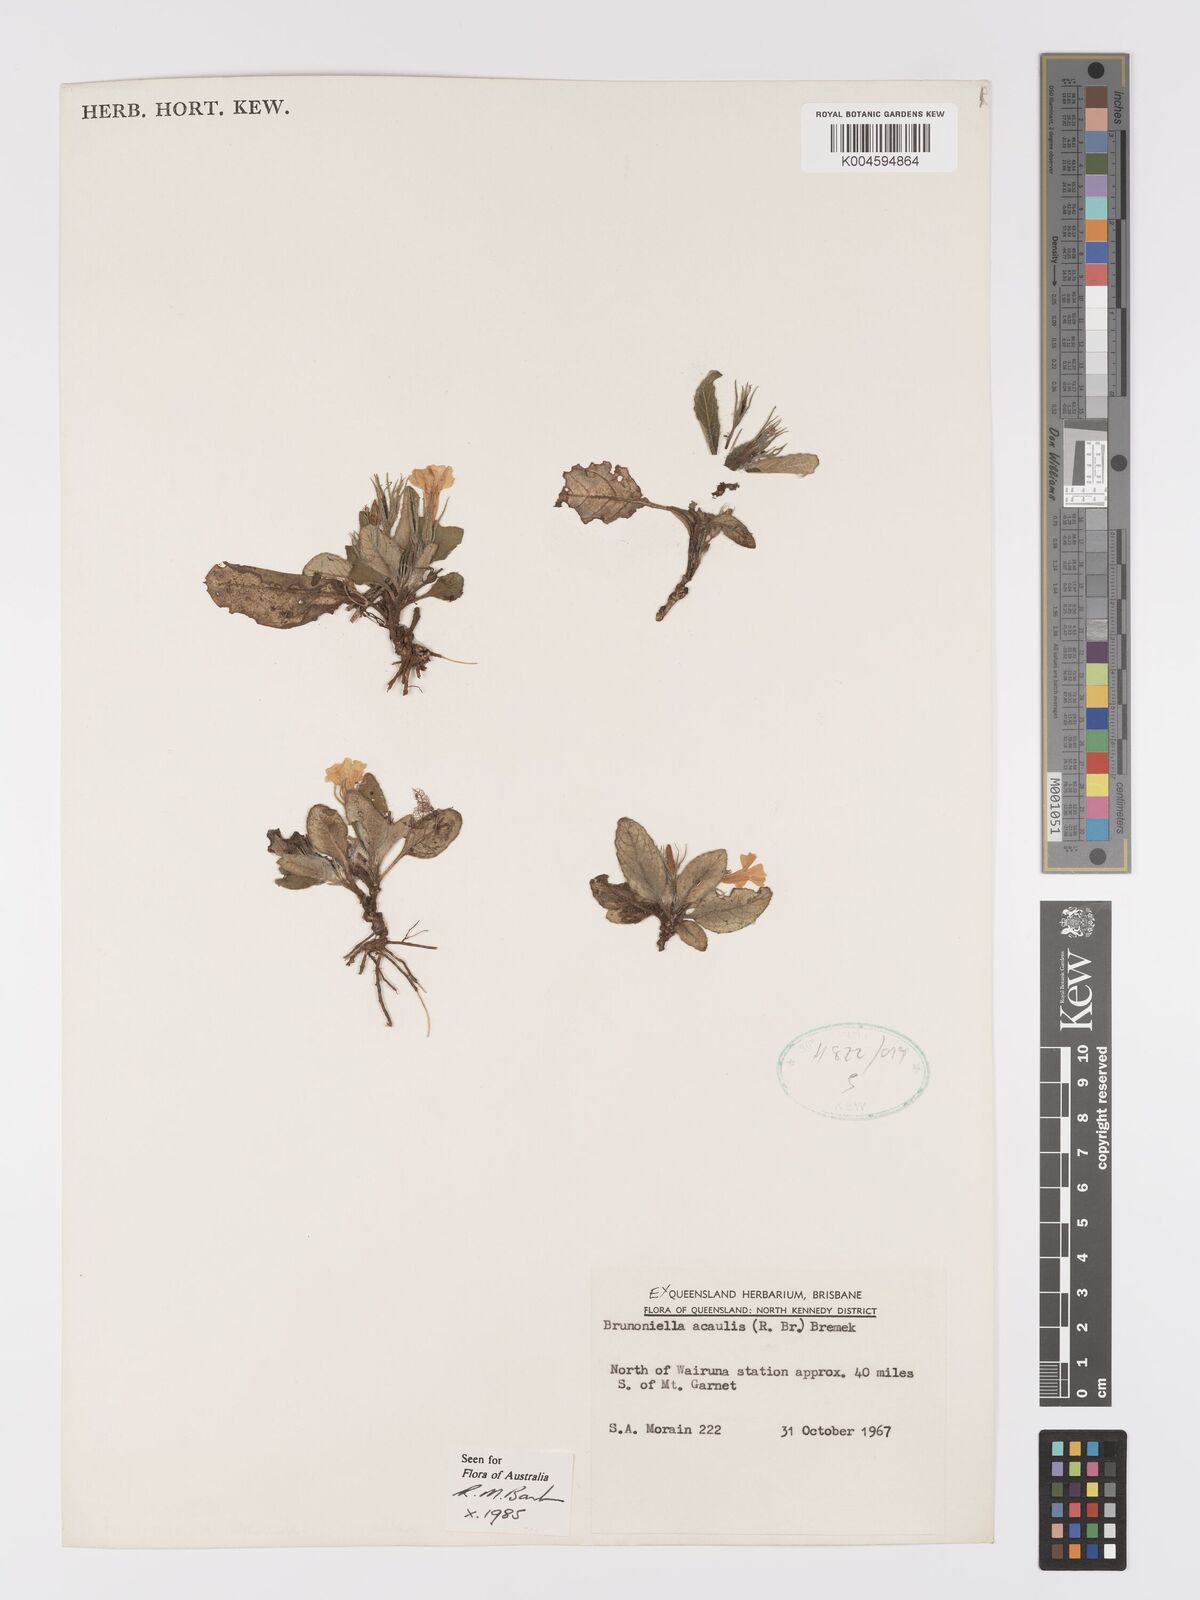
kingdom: Plantae
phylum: Tracheophyta
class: Magnoliopsida
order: Lamiales
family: Acanthaceae
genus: Brunoniella
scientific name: Brunoniella acaulis
